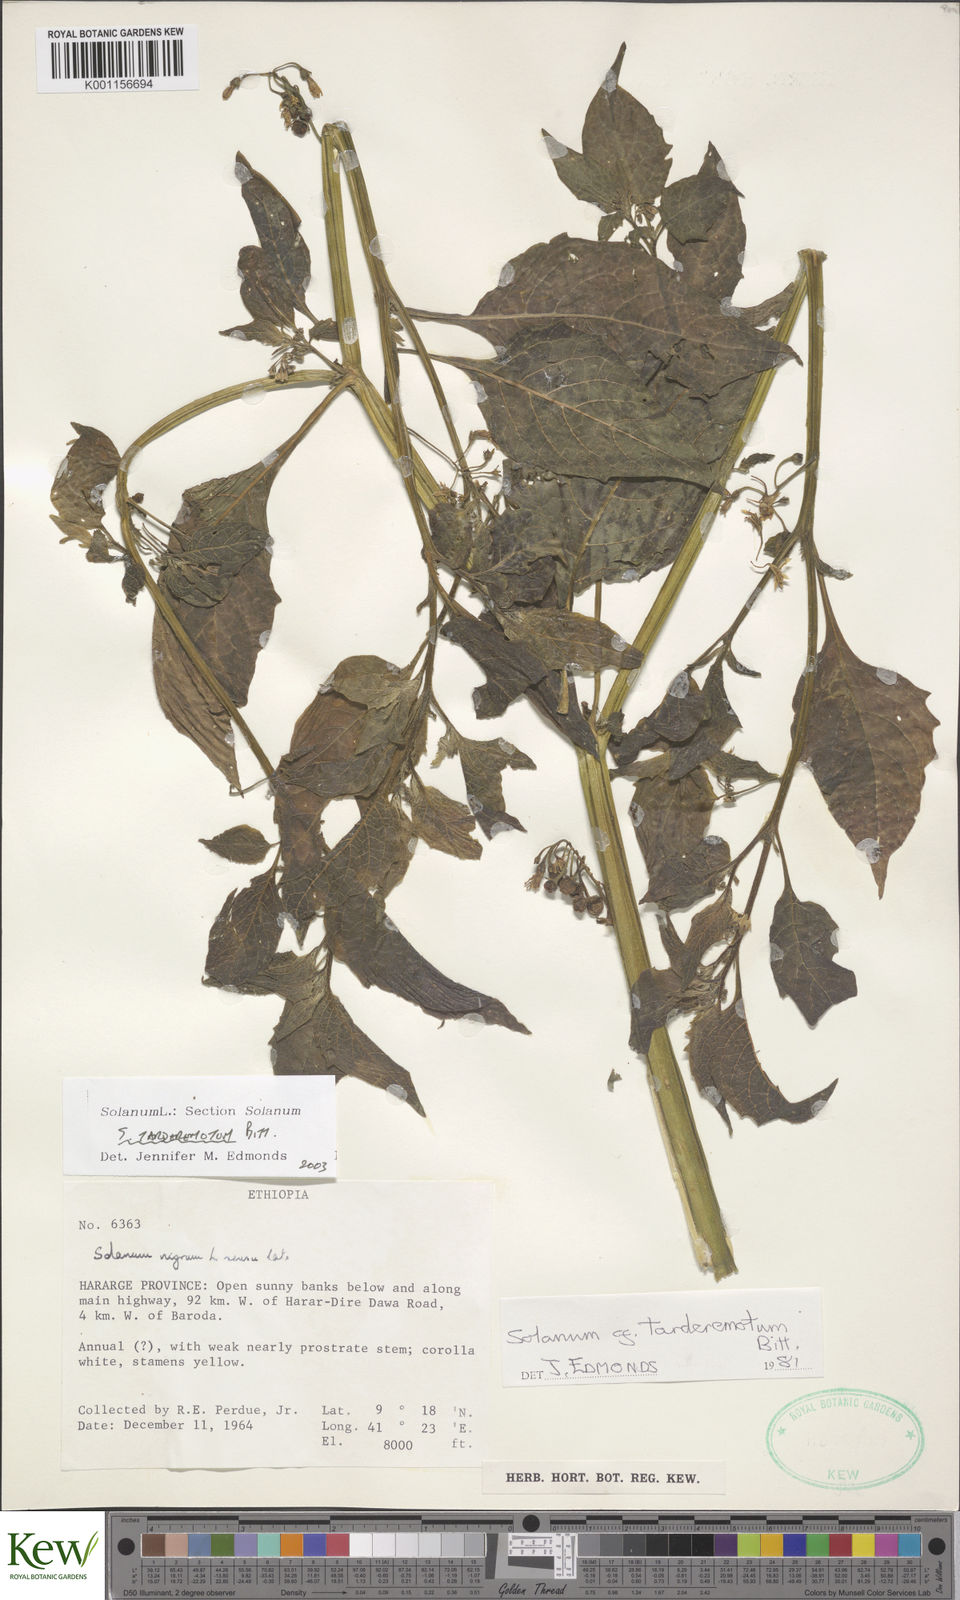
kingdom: Plantae
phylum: Tracheophyta
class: Magnoliopsida
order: Solanales
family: Solanaceae
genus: Solanum
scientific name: Solanum tarderemotum
